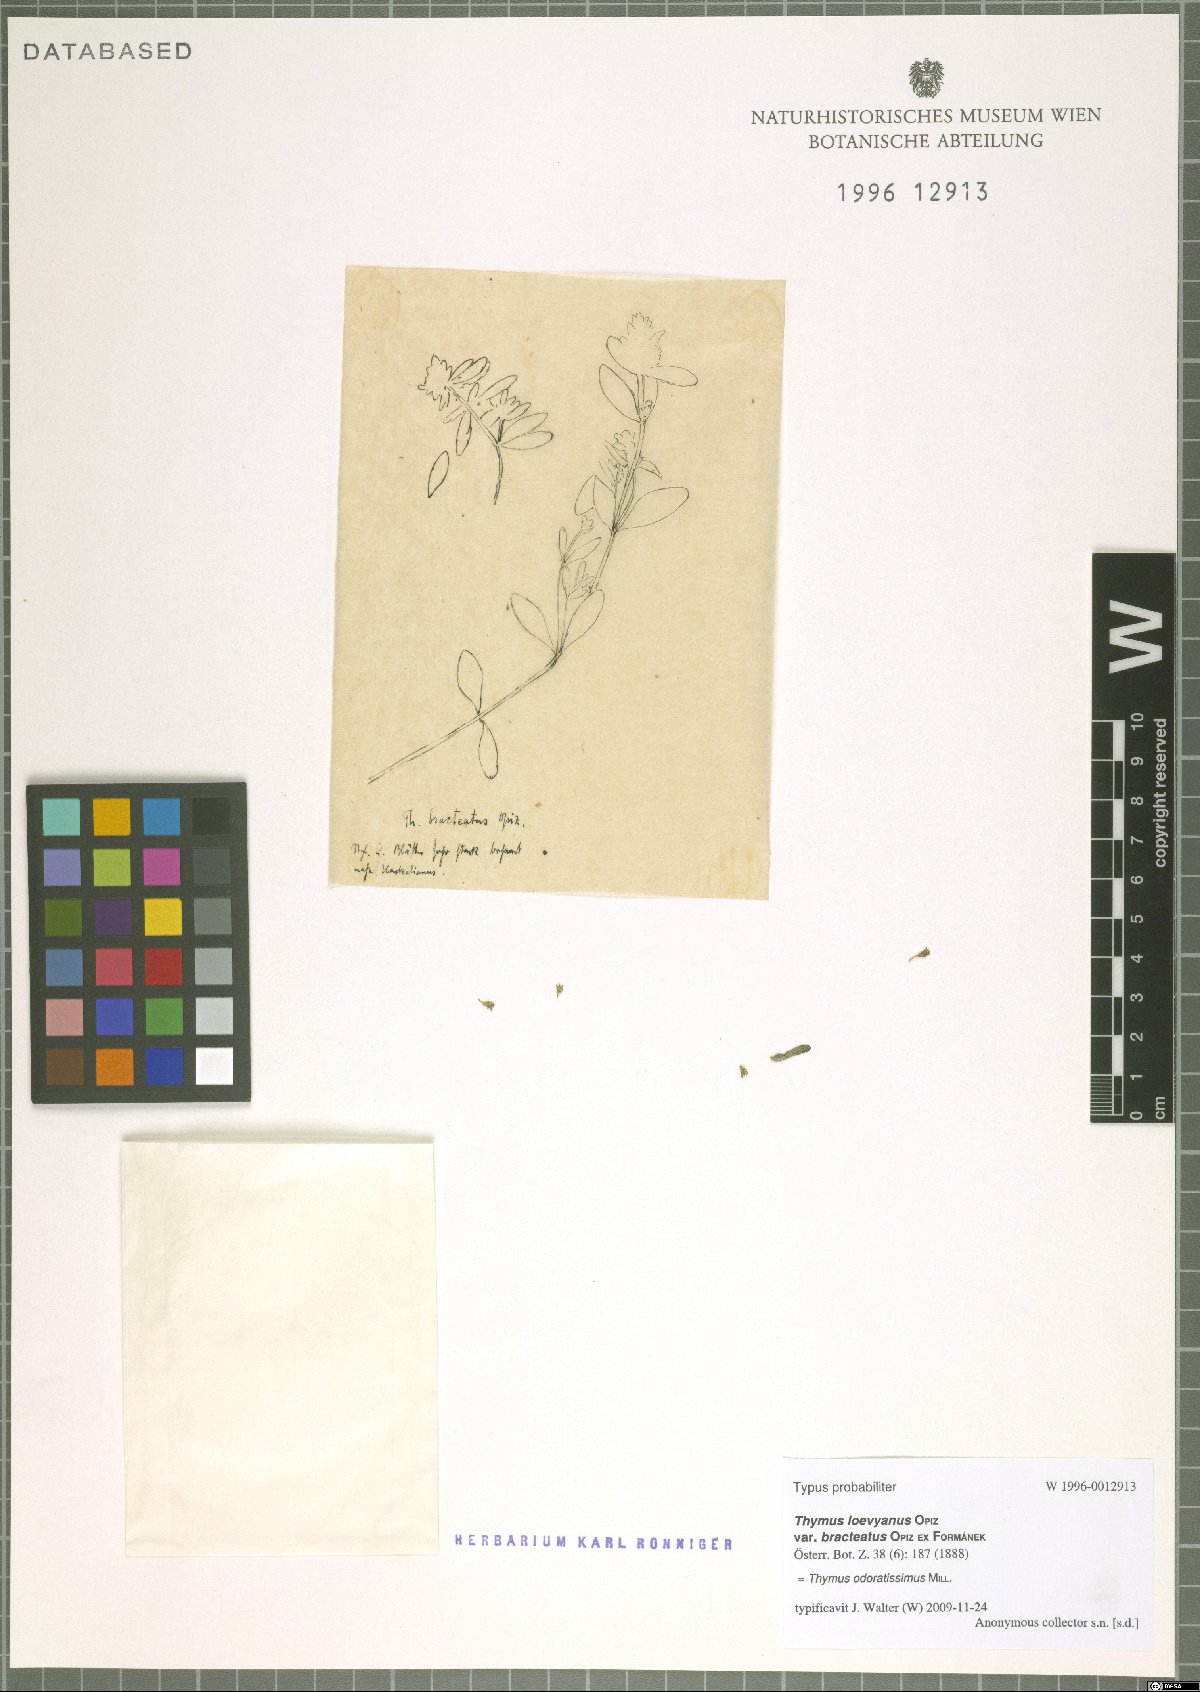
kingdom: Plantae
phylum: Tracheophyta
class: Magnoliopsida
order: Lamiales
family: Lamiaceae
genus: Thymus
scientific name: Thymus odoratissimus
